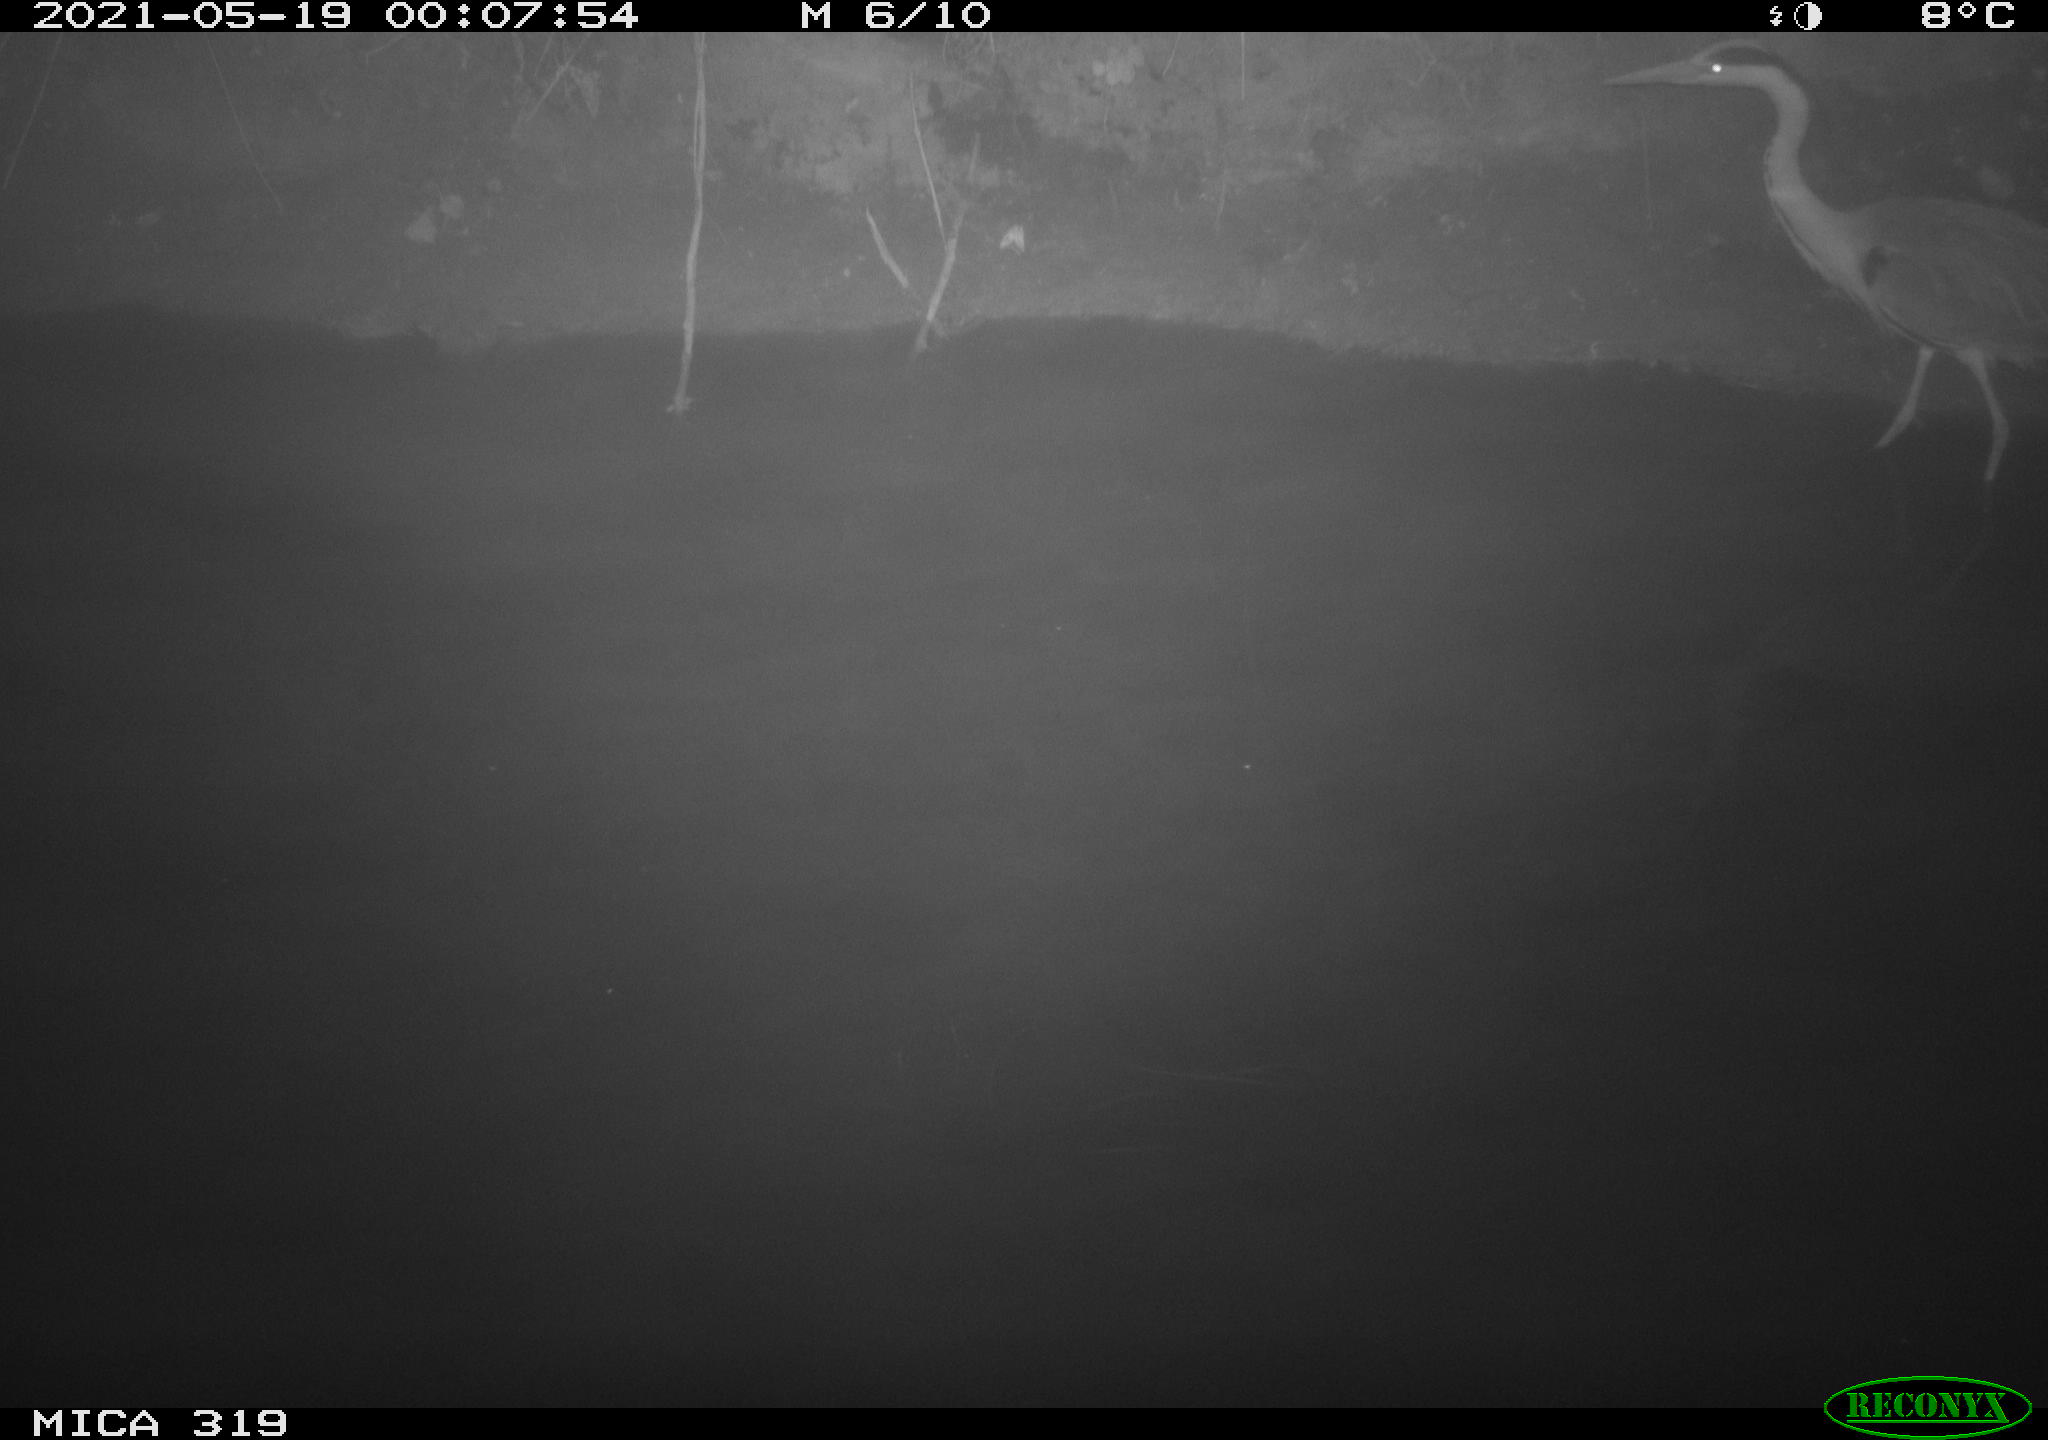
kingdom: Animalia
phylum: Chordata
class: Aves
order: Pelecaniformes
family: Ardeidae
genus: Ardea
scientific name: Ardea cinerea
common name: Grey heron
